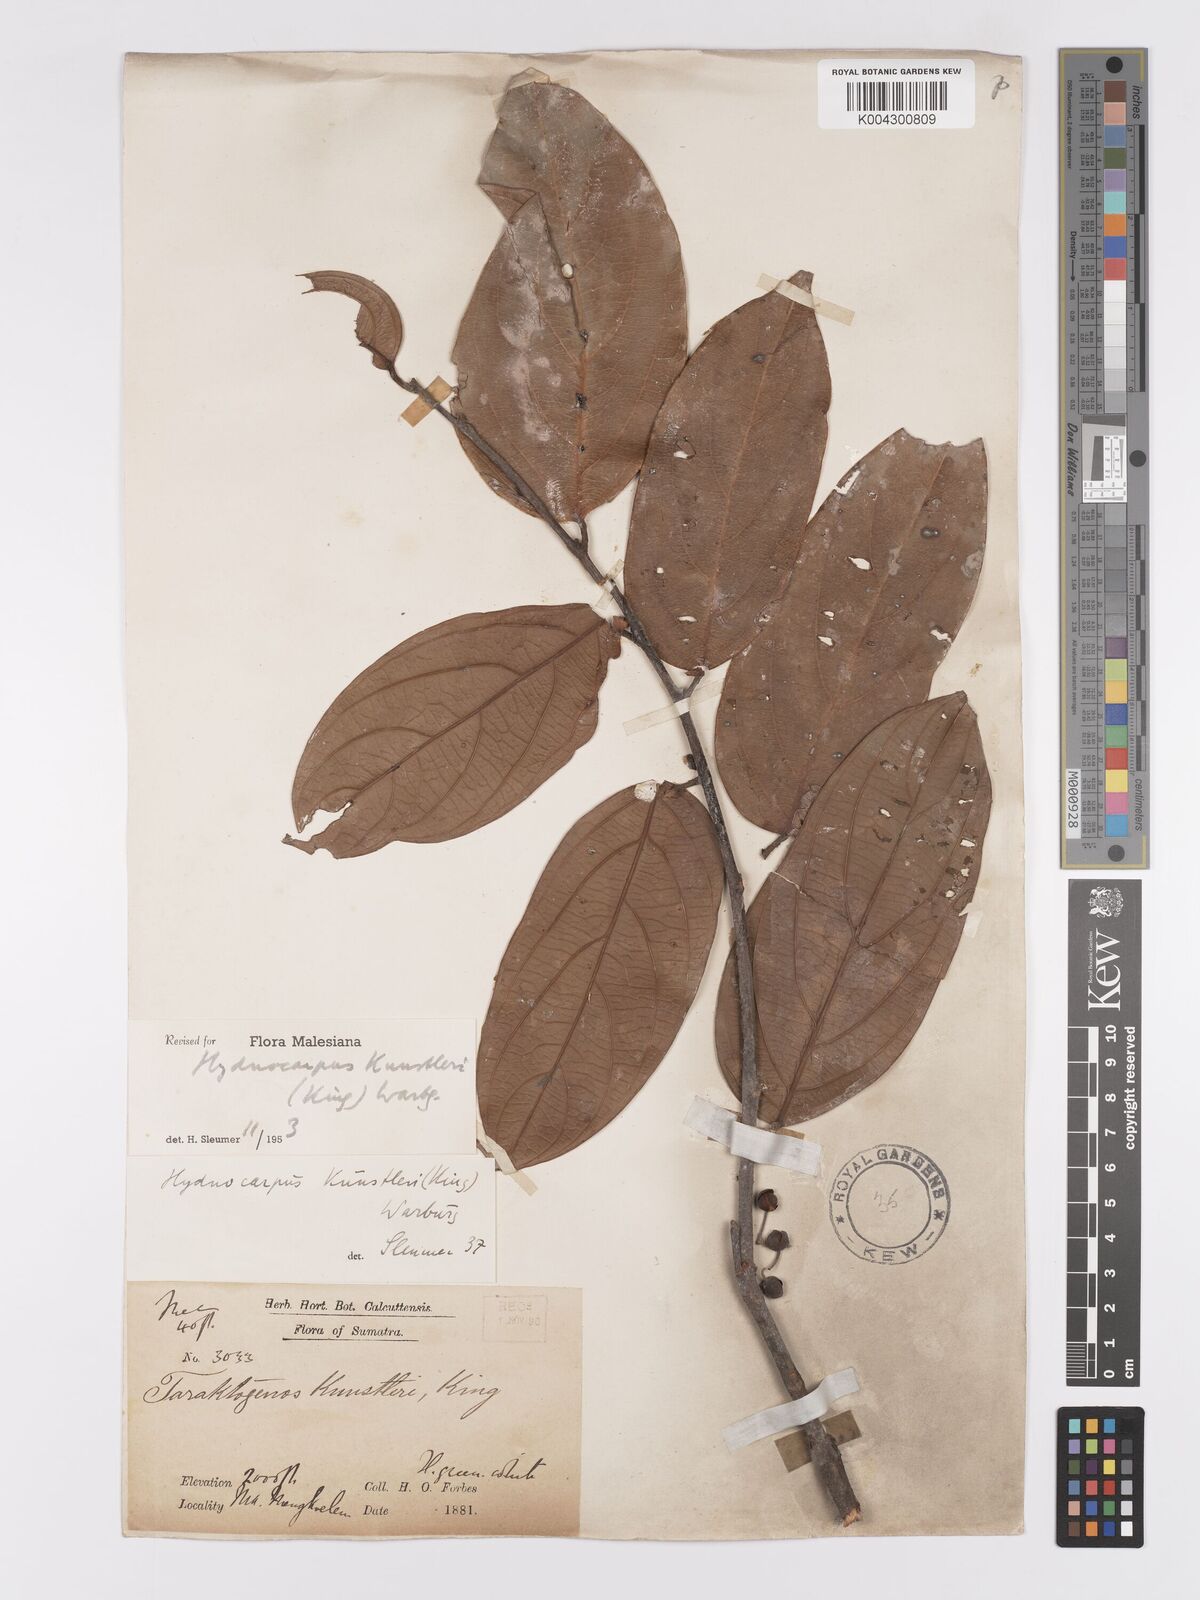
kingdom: Plantae
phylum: Tracheophyta
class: Magnoliopsida
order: Malpighiales
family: Achariaceae
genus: Hydnocarpus
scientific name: Hydnocarpus kunstleri
